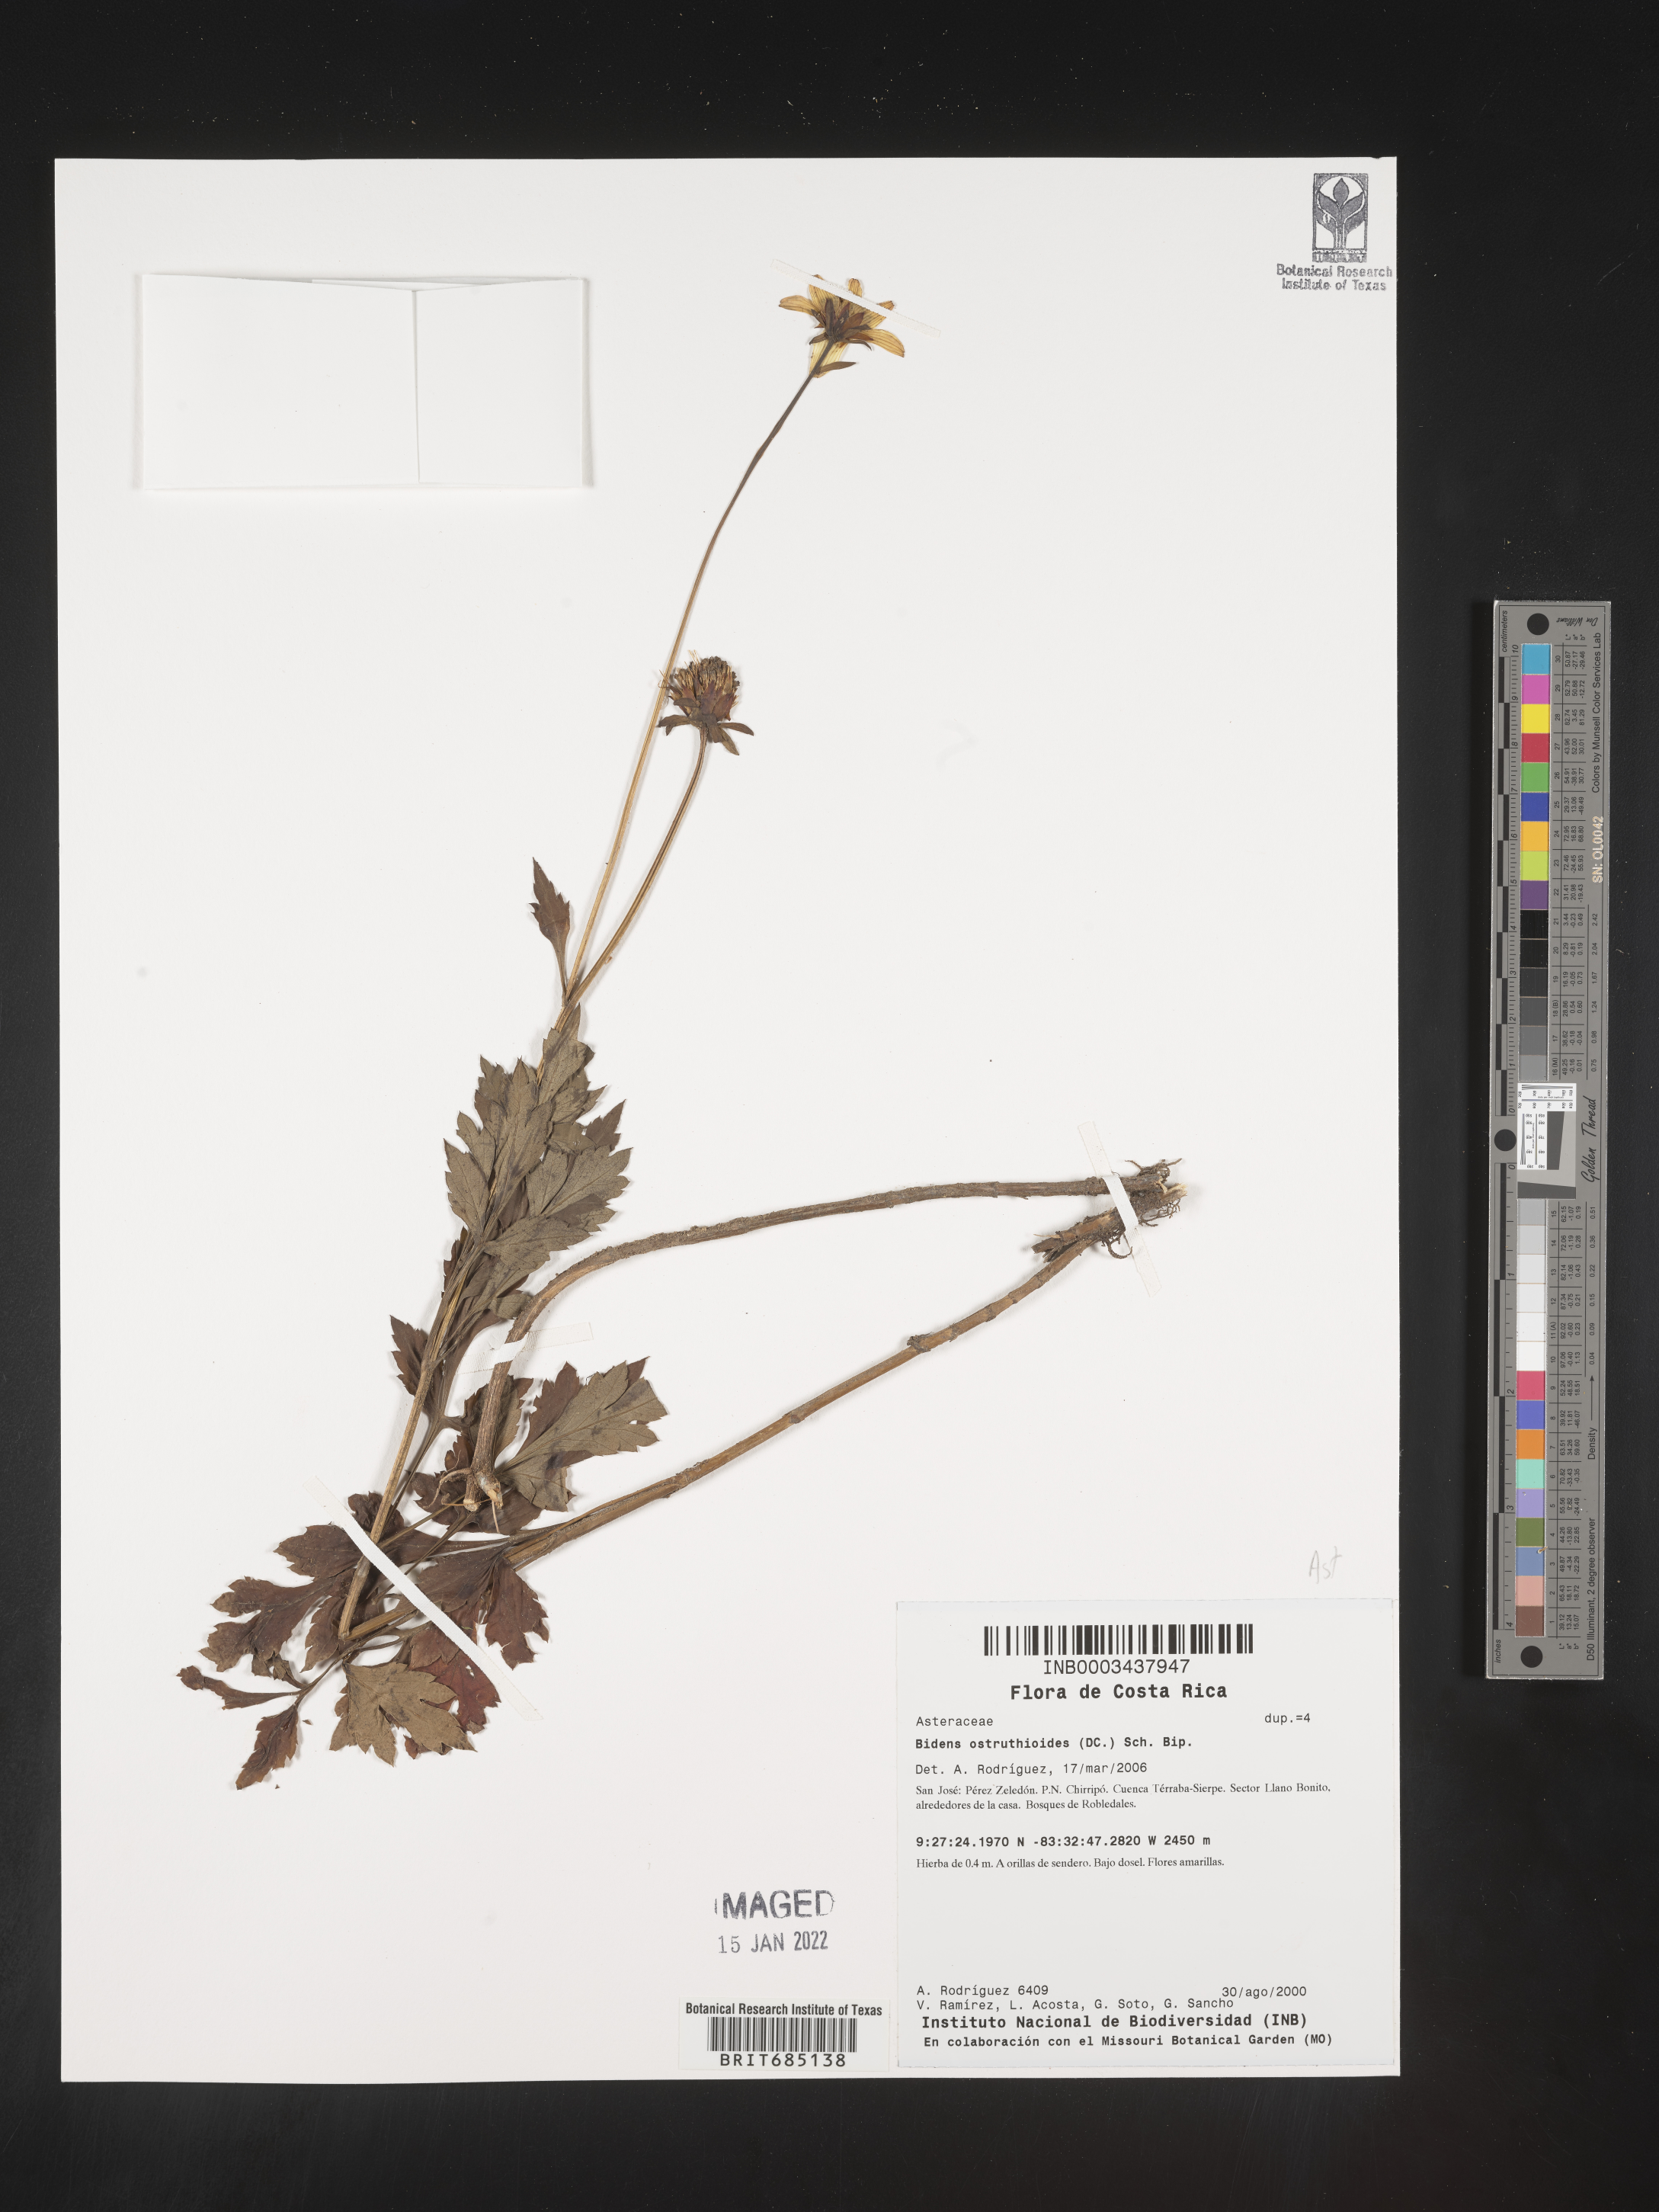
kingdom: Plantae
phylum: Tracheophyta
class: Magnoliopsida
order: Asterales
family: Asteraceae
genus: Bidens
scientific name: Bidens
